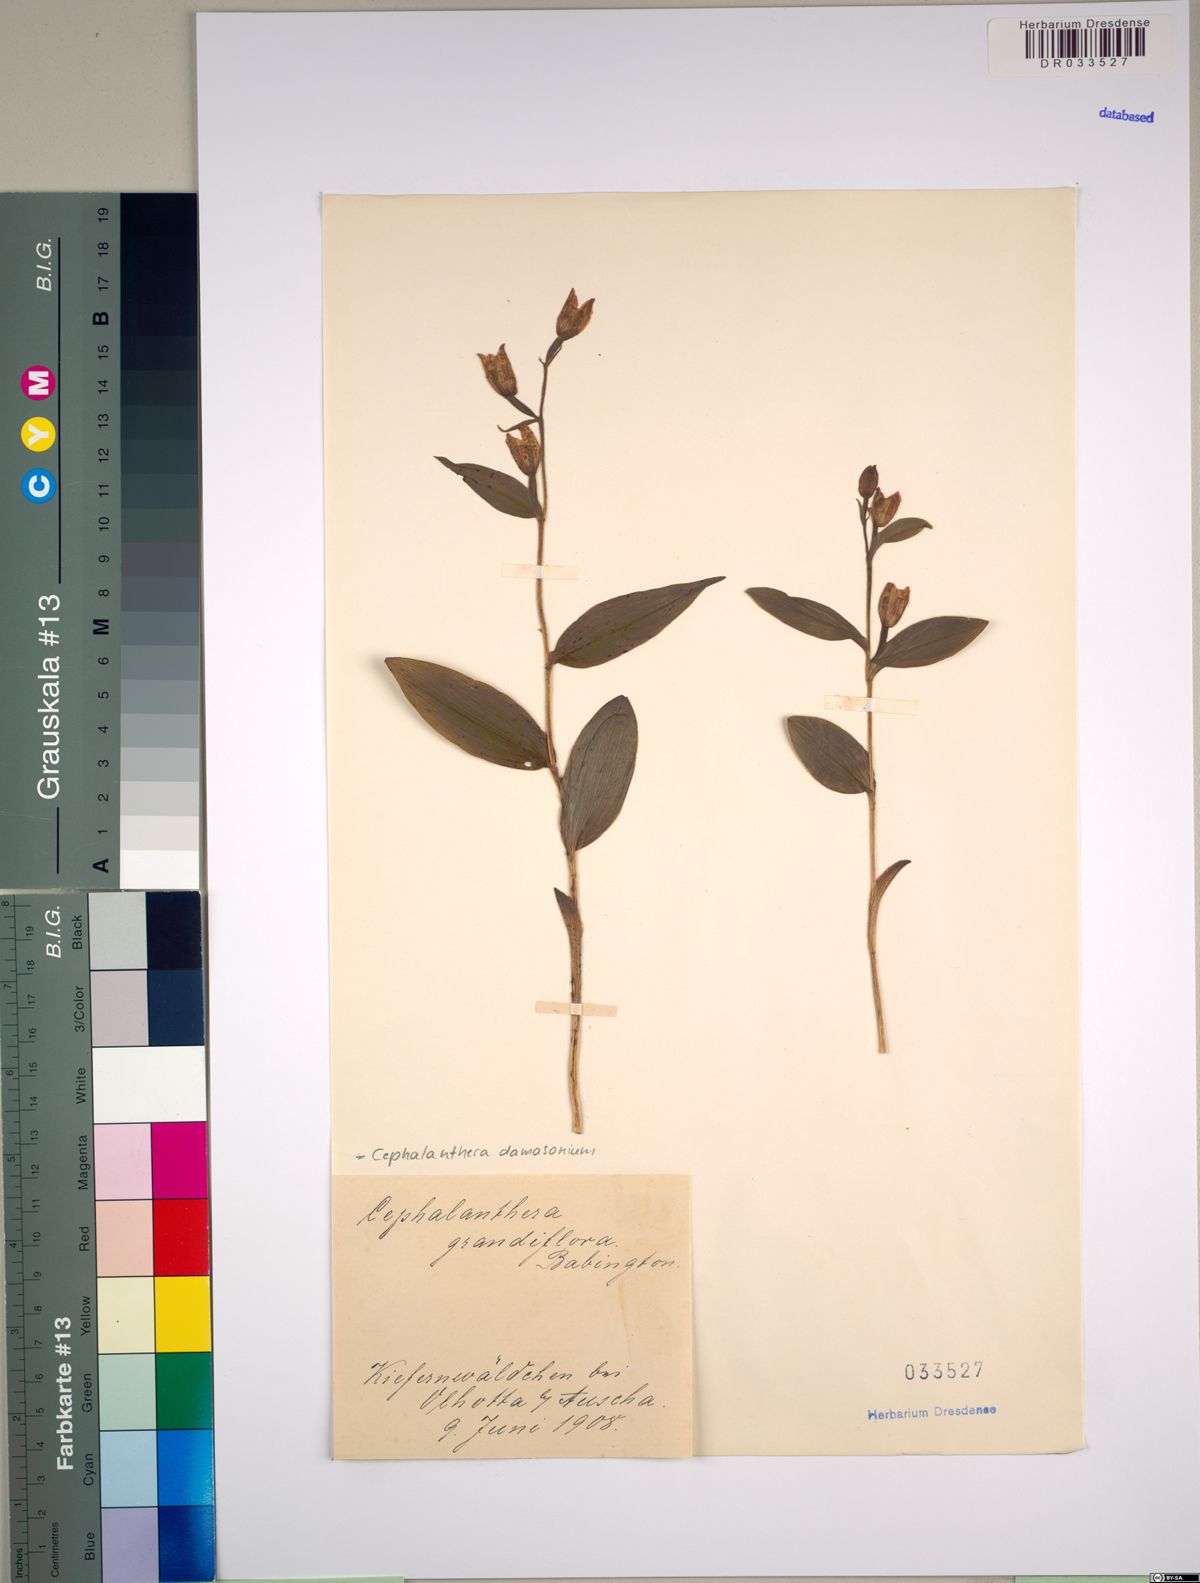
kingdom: Plantae
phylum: Tracheophyta
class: Liliopsida
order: Asparagales
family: Orchidaceae
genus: Cephalanthera
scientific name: Cephalanthera damasonium
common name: White helleborine
